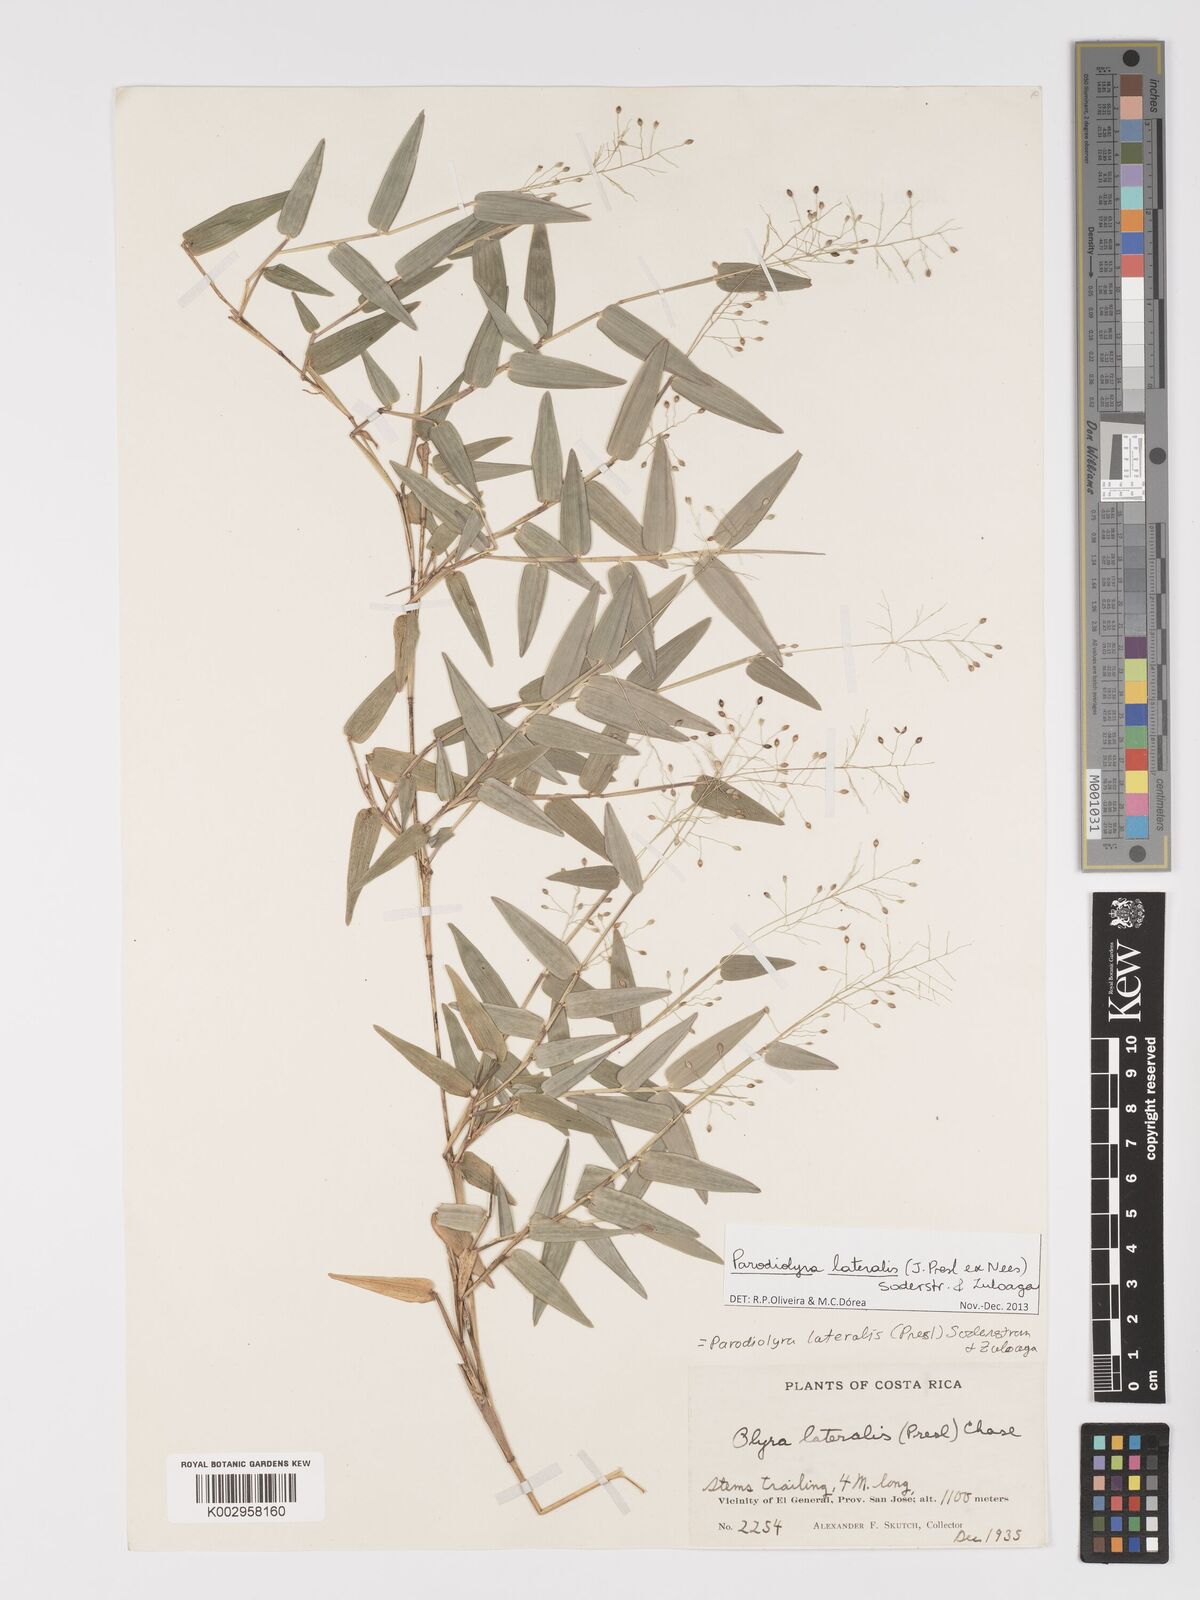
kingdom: Plantae
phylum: Tracheophyta
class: Liliopsida
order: Poales
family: Poaceae
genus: Parodiolyra
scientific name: Parodiolyra lateralis
